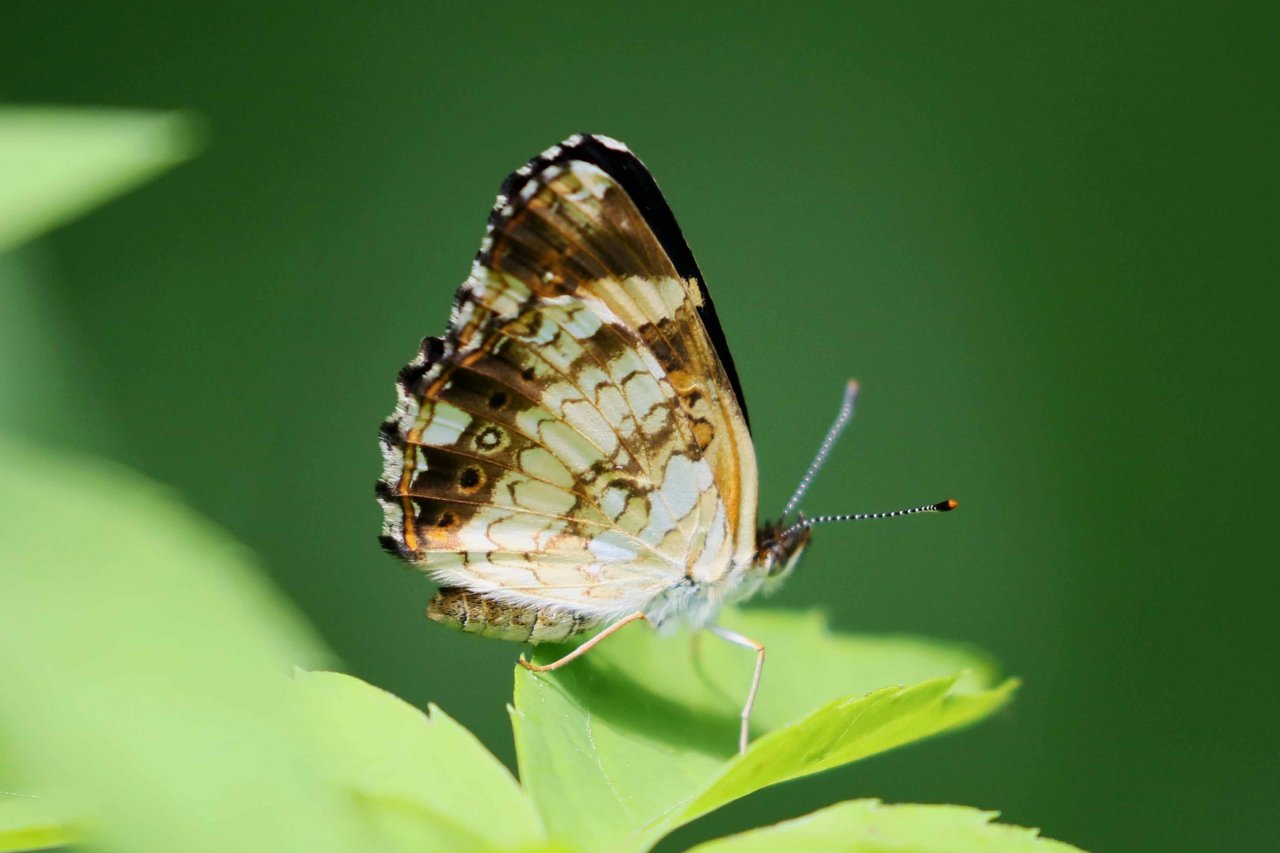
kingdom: Animalia
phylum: Arthropoda
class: Insecta
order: Lepidoptera
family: Nymphalidae
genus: Chlosyne
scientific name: Chlosyne nycteis
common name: Silvery Checkerspot
